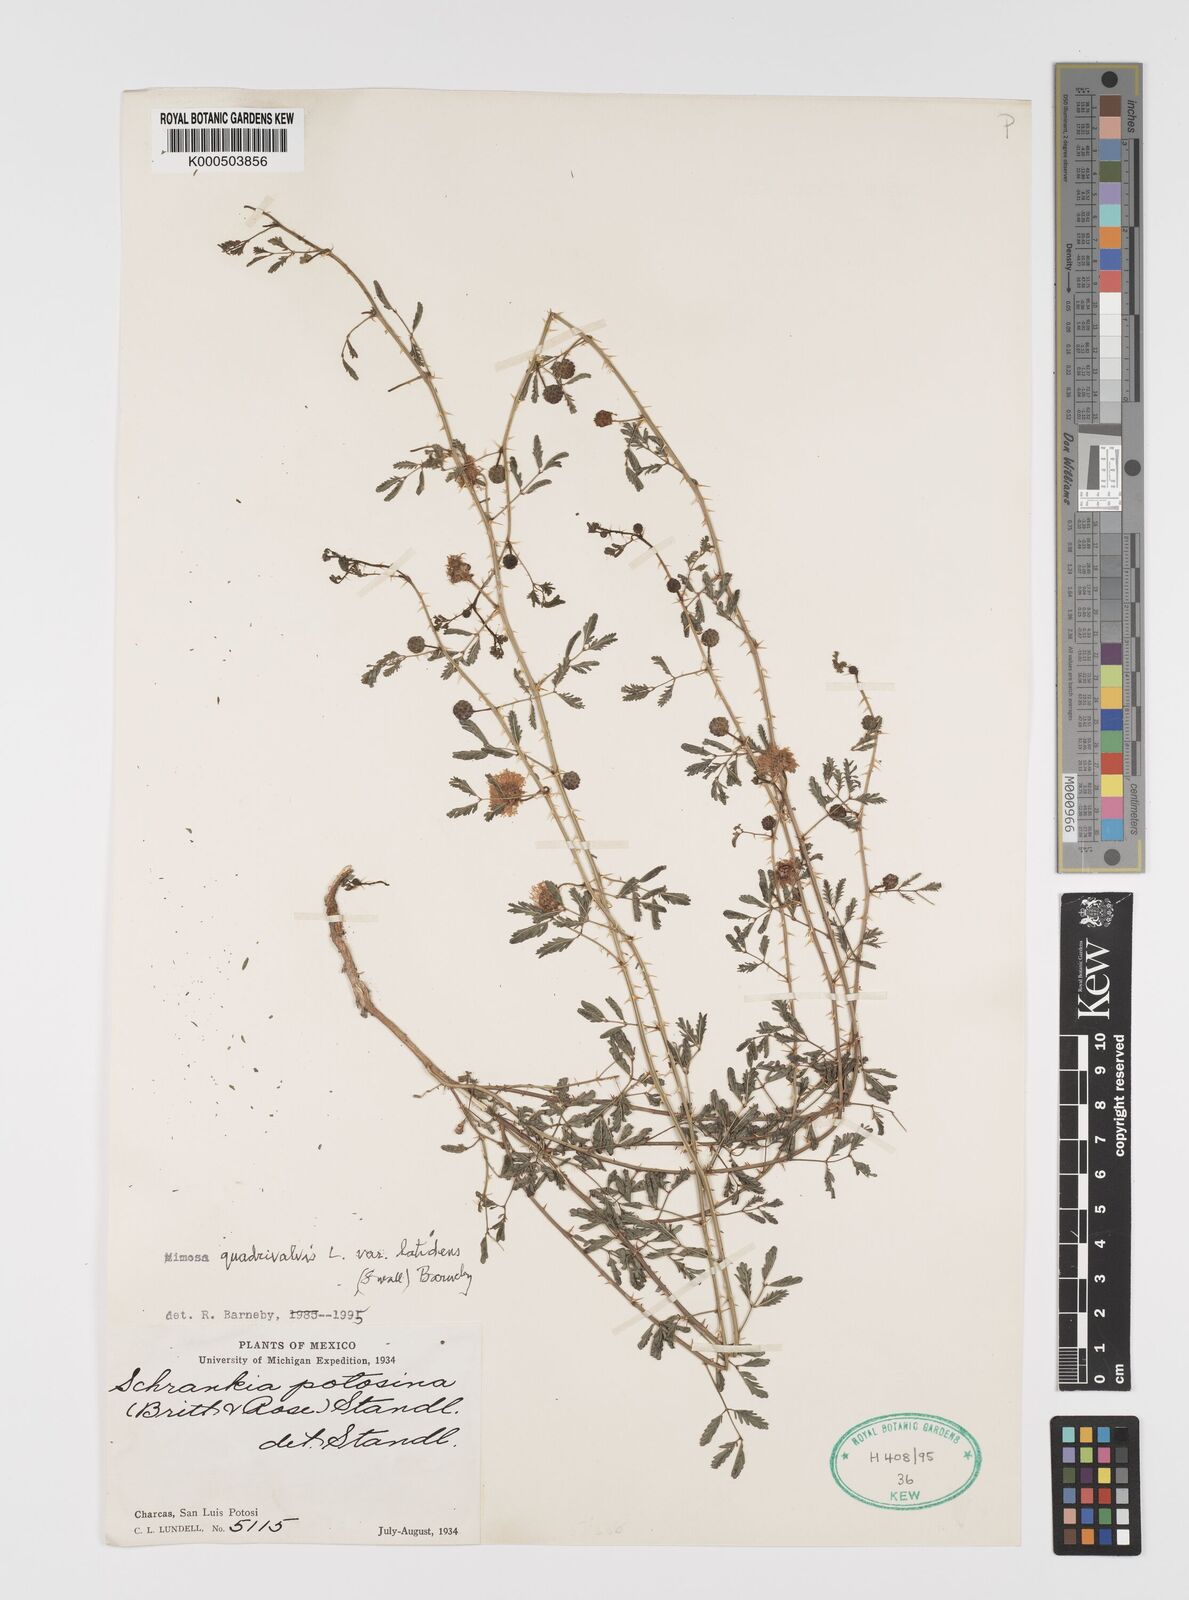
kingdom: Plantae
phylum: Tracheophyta
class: Magnoliopsida
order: Fabales
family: Fabaceae
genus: Mimosa
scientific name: Mimosa latidens
